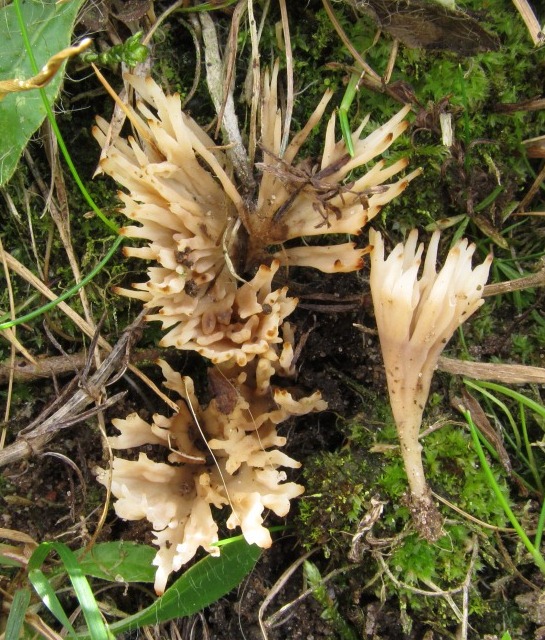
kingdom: Fungi
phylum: Basidiomycota
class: Agaricomycetes
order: Tremellodendropsidales
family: Tremellodendropsidaceae
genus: Tremellodendropsis
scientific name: Tremellodendropsis tuberosa
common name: bævrekølle
